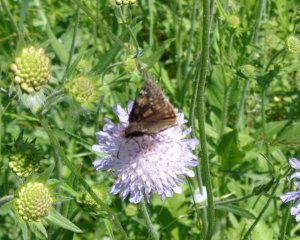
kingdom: Animalia
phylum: Arthropoda
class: Insecta
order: Lepidoptera
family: Hesperiidae
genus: Gesta
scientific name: Gesta
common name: Juvenal's Duskywing
